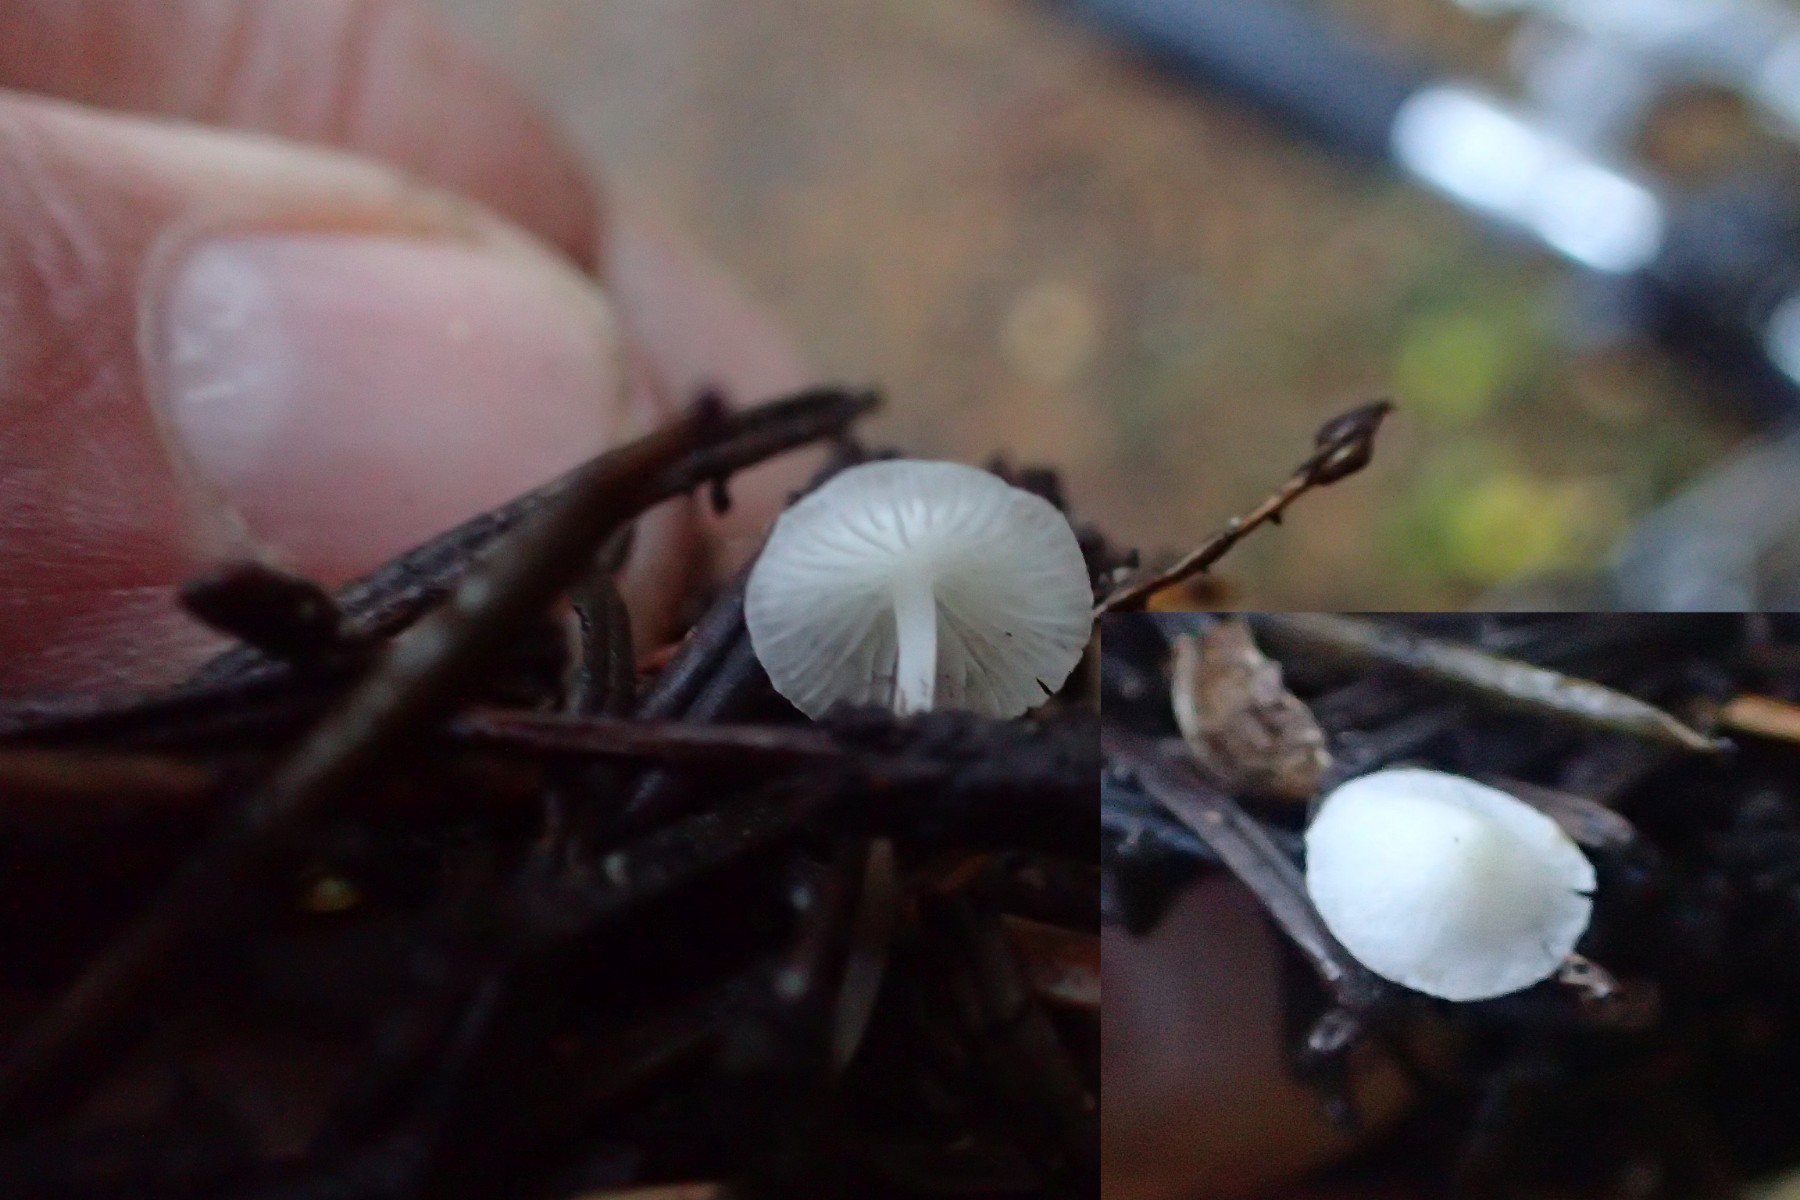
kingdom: Fungi
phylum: Basidiomycota
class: Agaricomycetes
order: Agaricales
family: Mycenaceae
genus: Hemimycena
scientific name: Hemimycena lactea
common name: mælkehvid huesvamp
